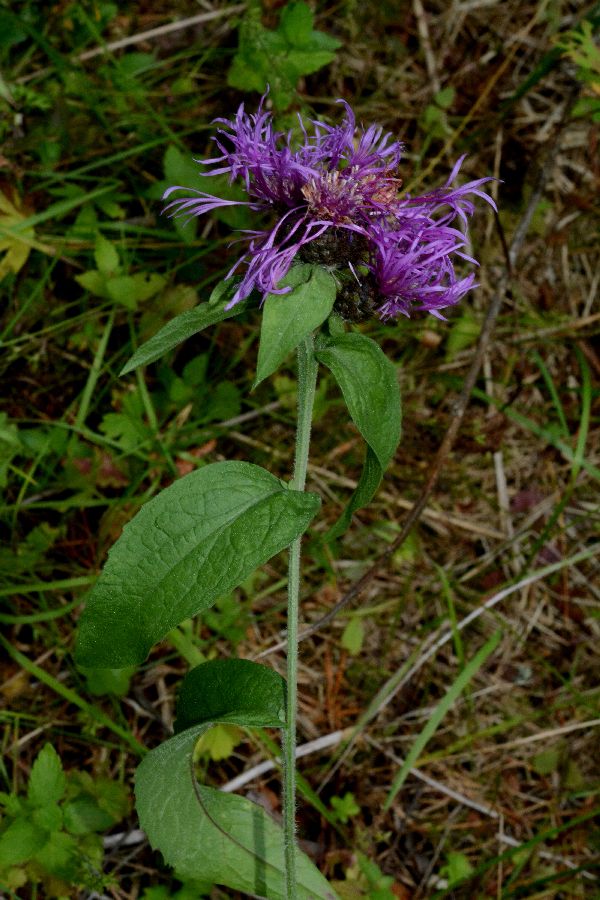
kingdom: Plantae
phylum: Tracheophyta
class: Magnoliopsida
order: Asterales
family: Asteraceae
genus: Centaurea
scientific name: Centaurea phrygia
